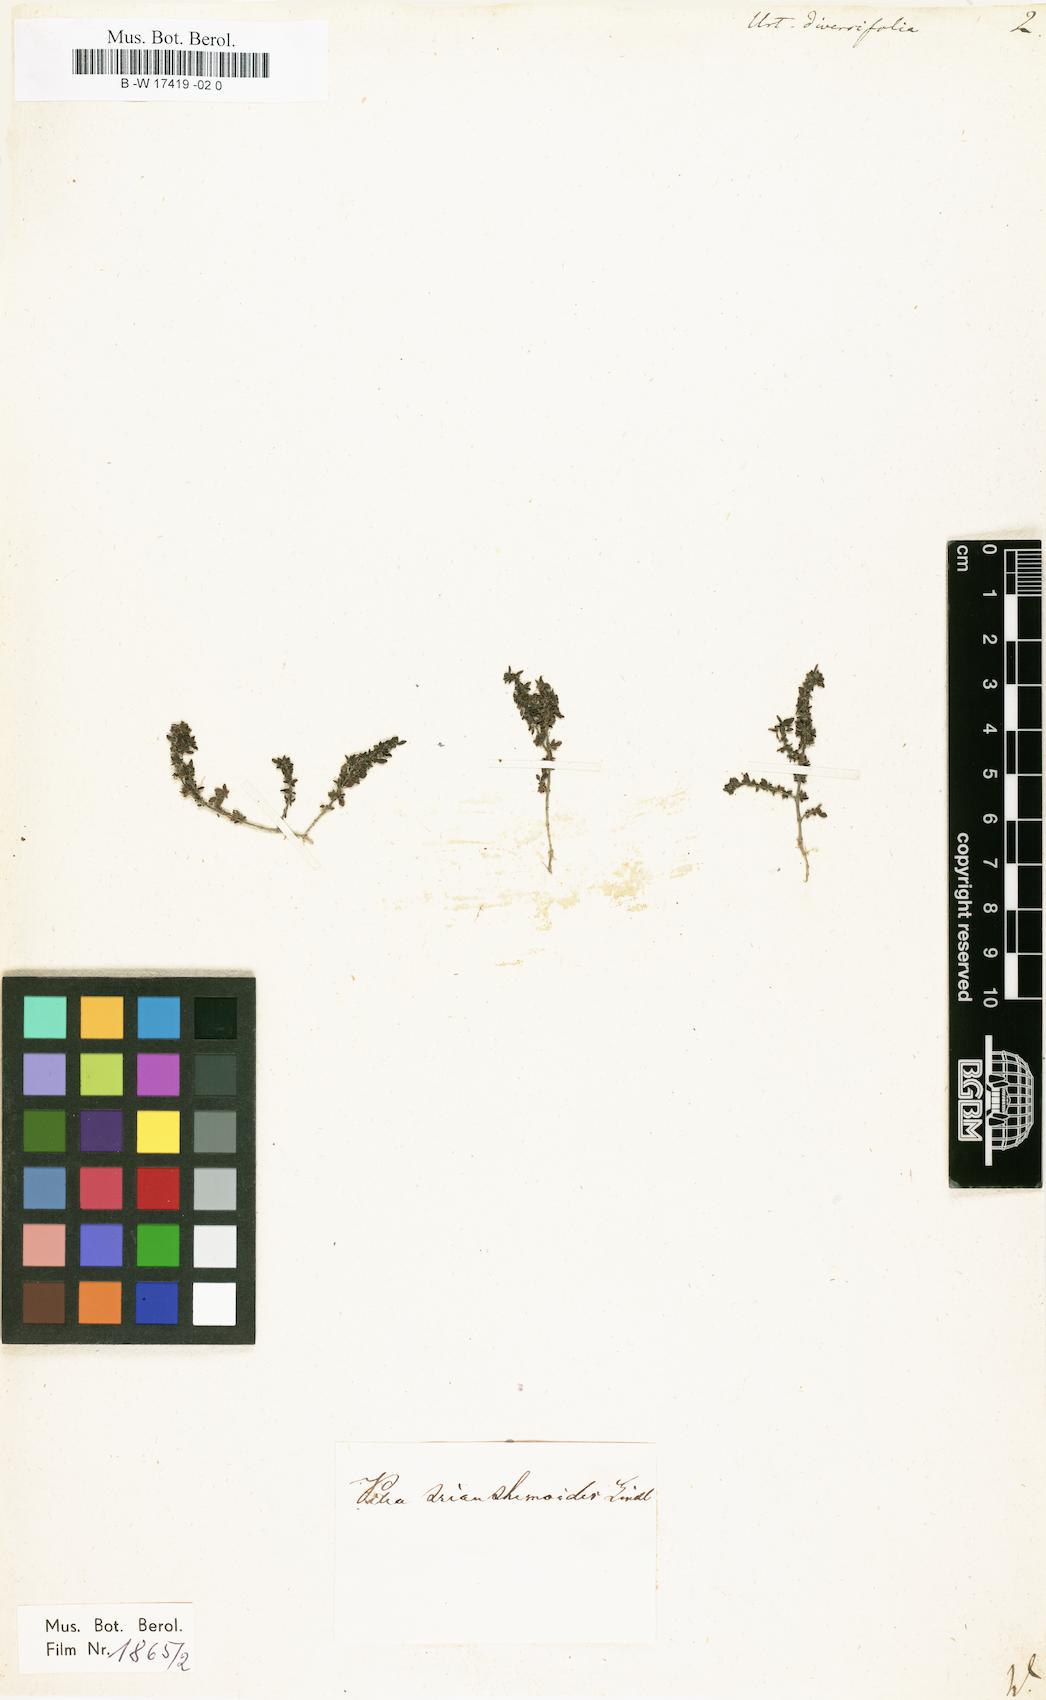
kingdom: Plantae
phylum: Tracheophyta
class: Magnoliopsida
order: Rosales
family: Urticaceae
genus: Girardinia
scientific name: Girardinia diversifolia
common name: Himalayan-nettle
